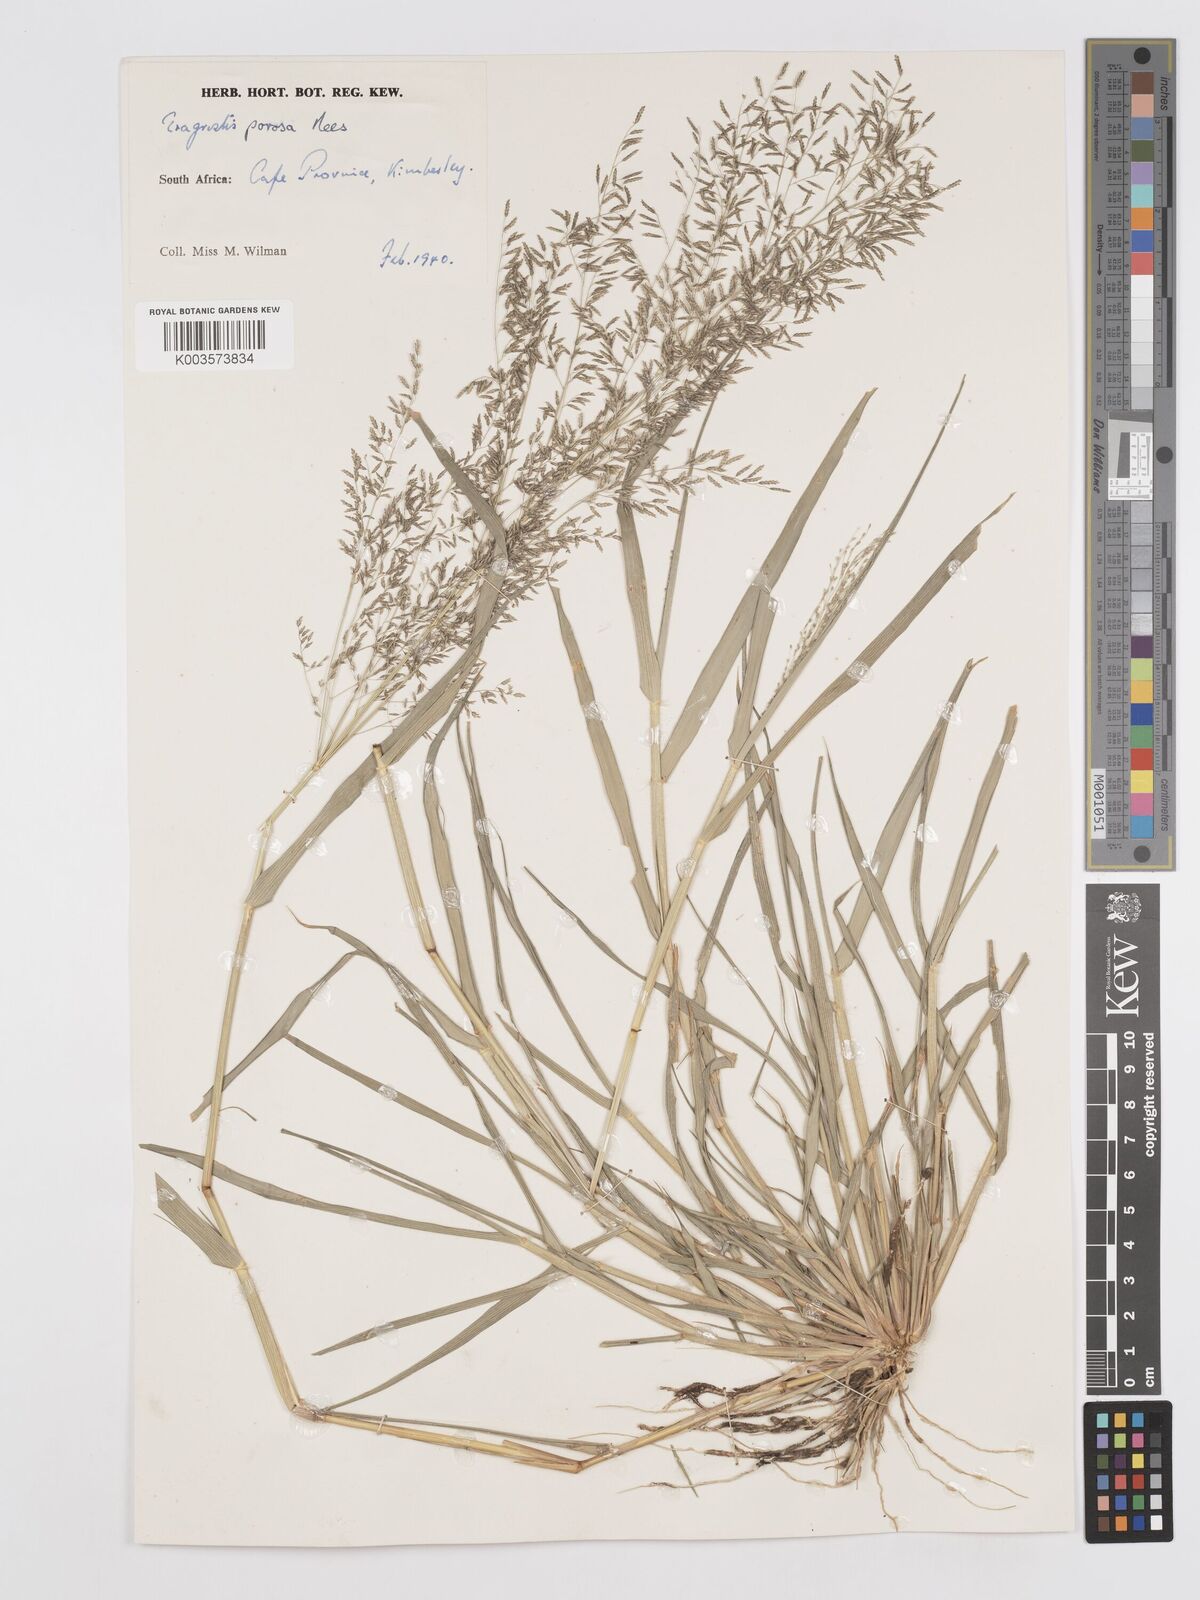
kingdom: Plantae
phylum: Tracheophyta
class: Liliopsida
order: Poales
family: Poaceae
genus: Eragrostis
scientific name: Eragrostis porosa
